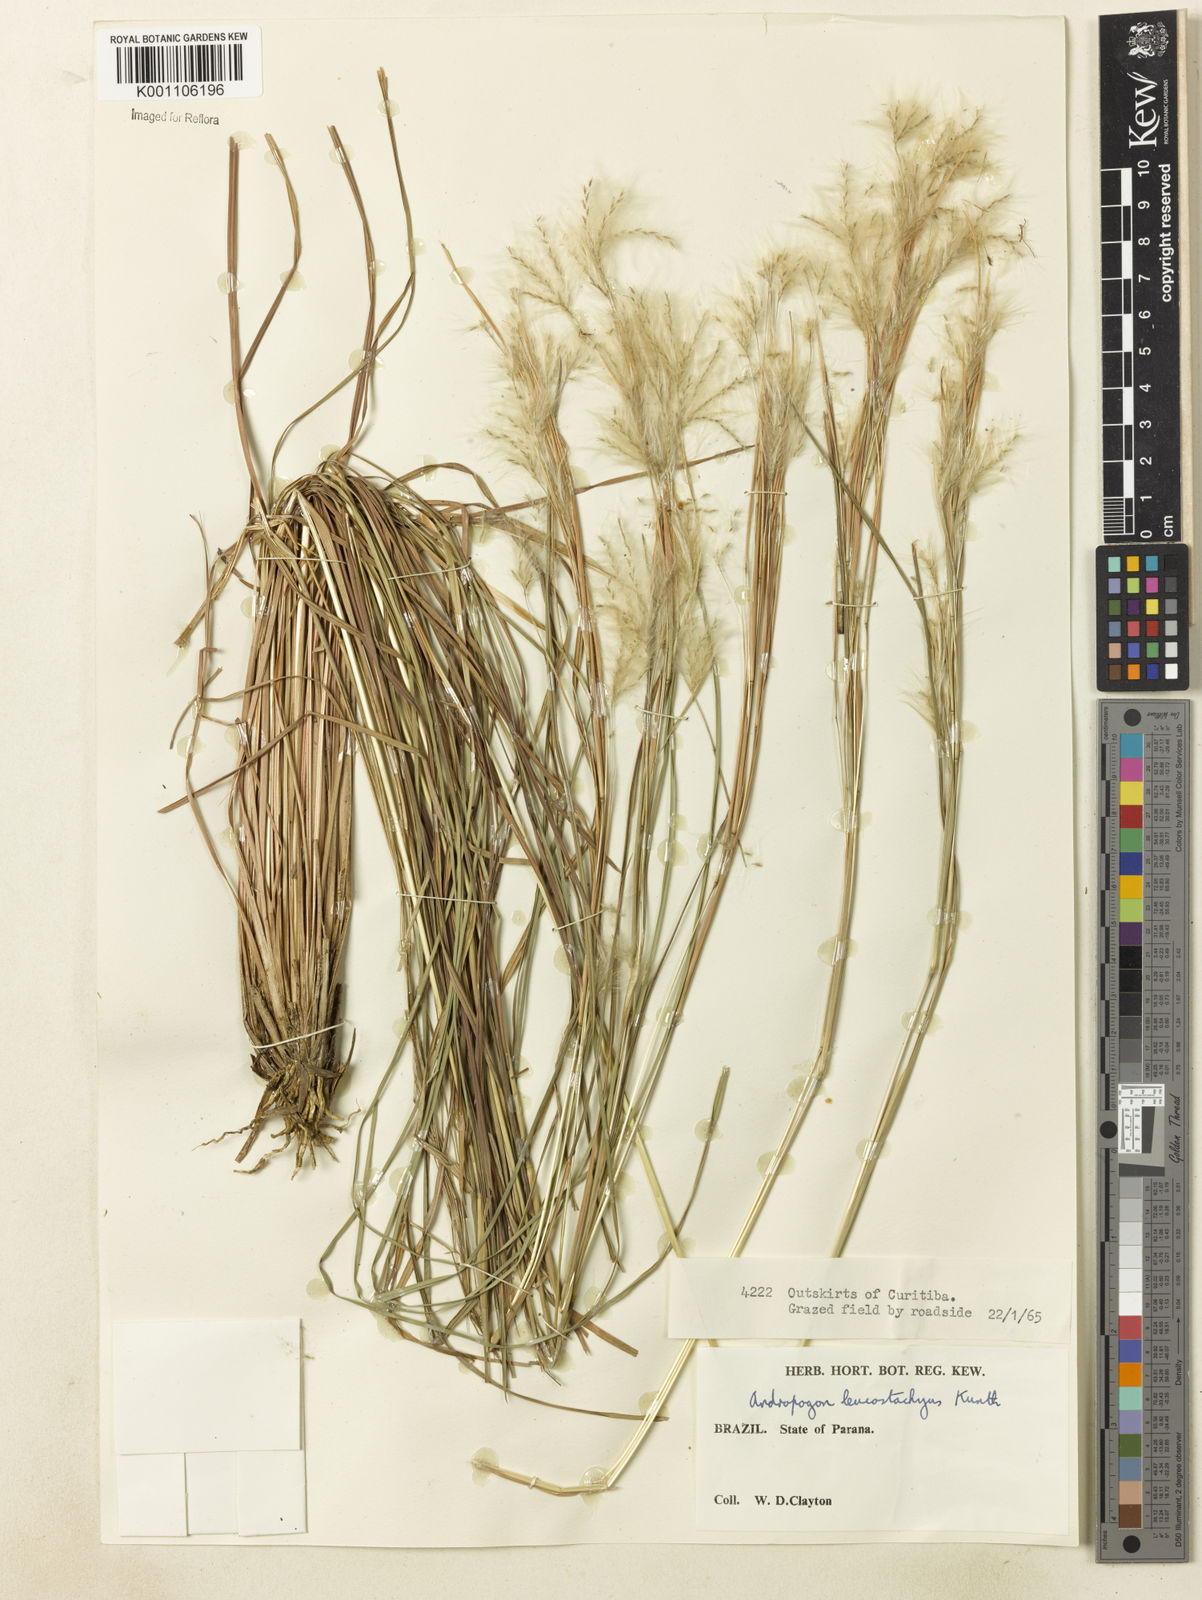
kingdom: Plantae
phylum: Tracheophyta
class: Liliopsida
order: Poales
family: Poaceae
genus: Andropogon
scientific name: Andropogon leucostachyus
